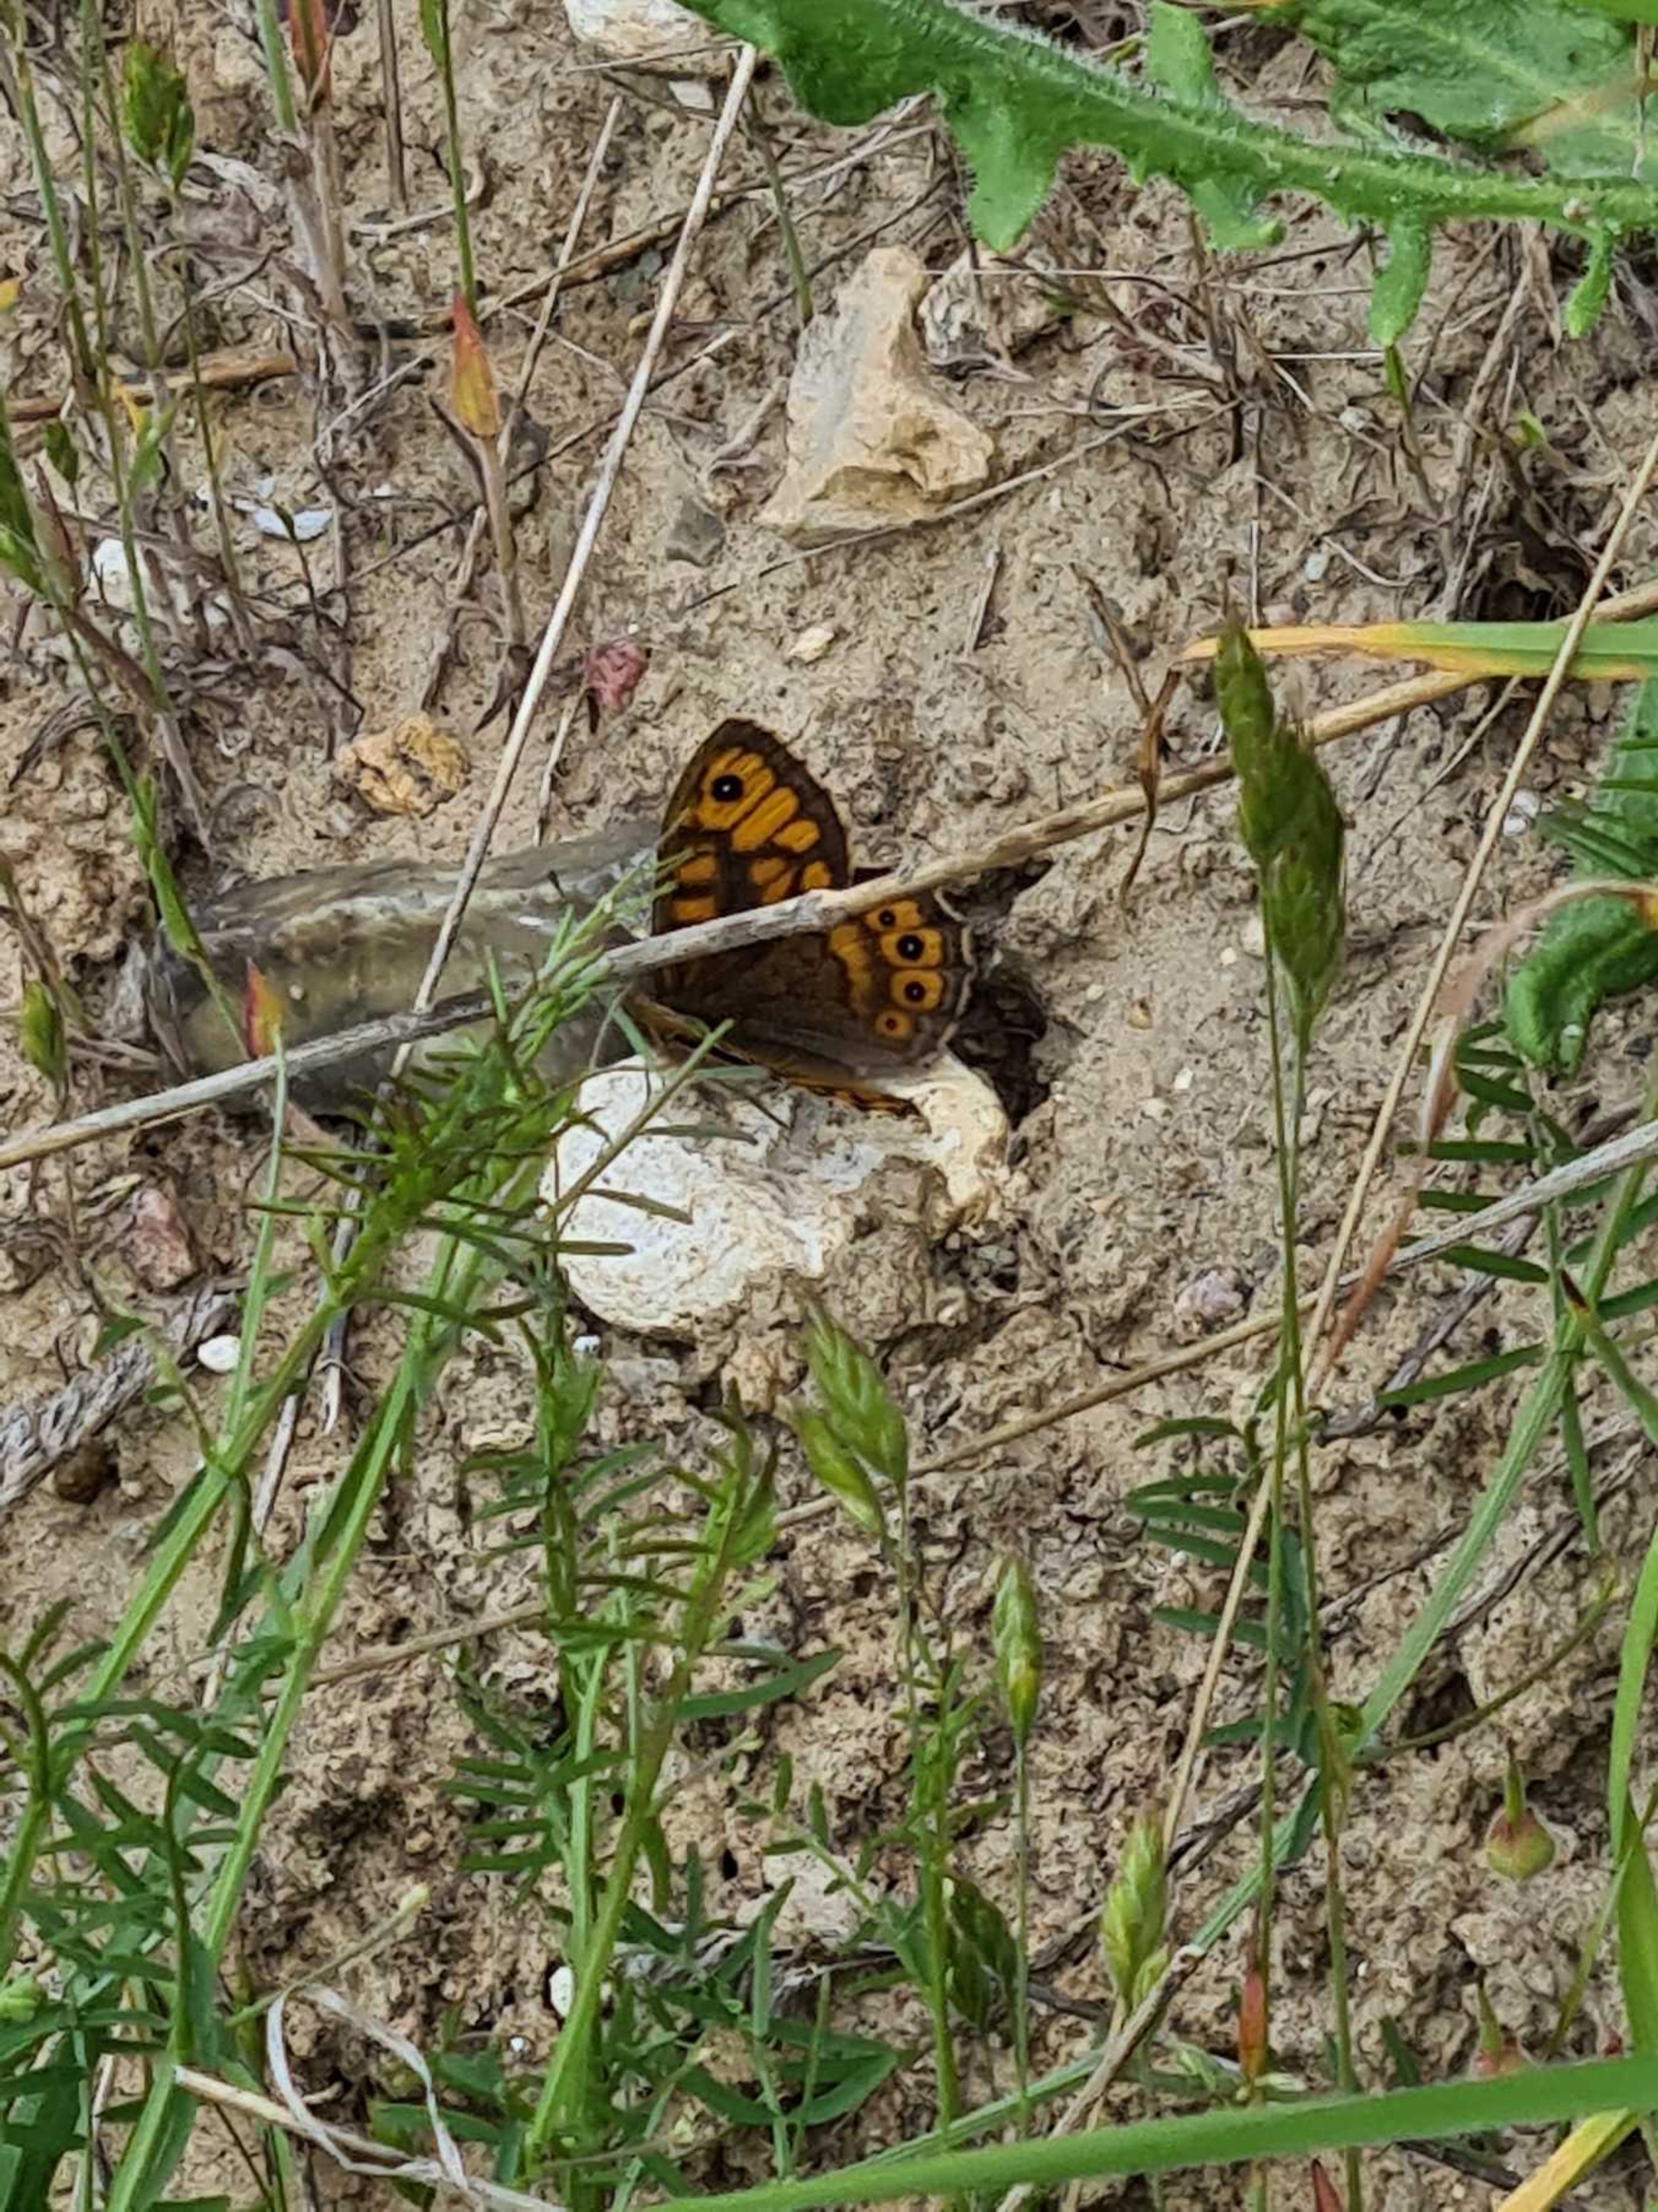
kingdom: Animalia
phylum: Arthropoda
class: Insecta
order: Lepidoptera
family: Nymphalidae
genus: Pararge
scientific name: Pararge Lasiommata megera
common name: Vejrandøje
